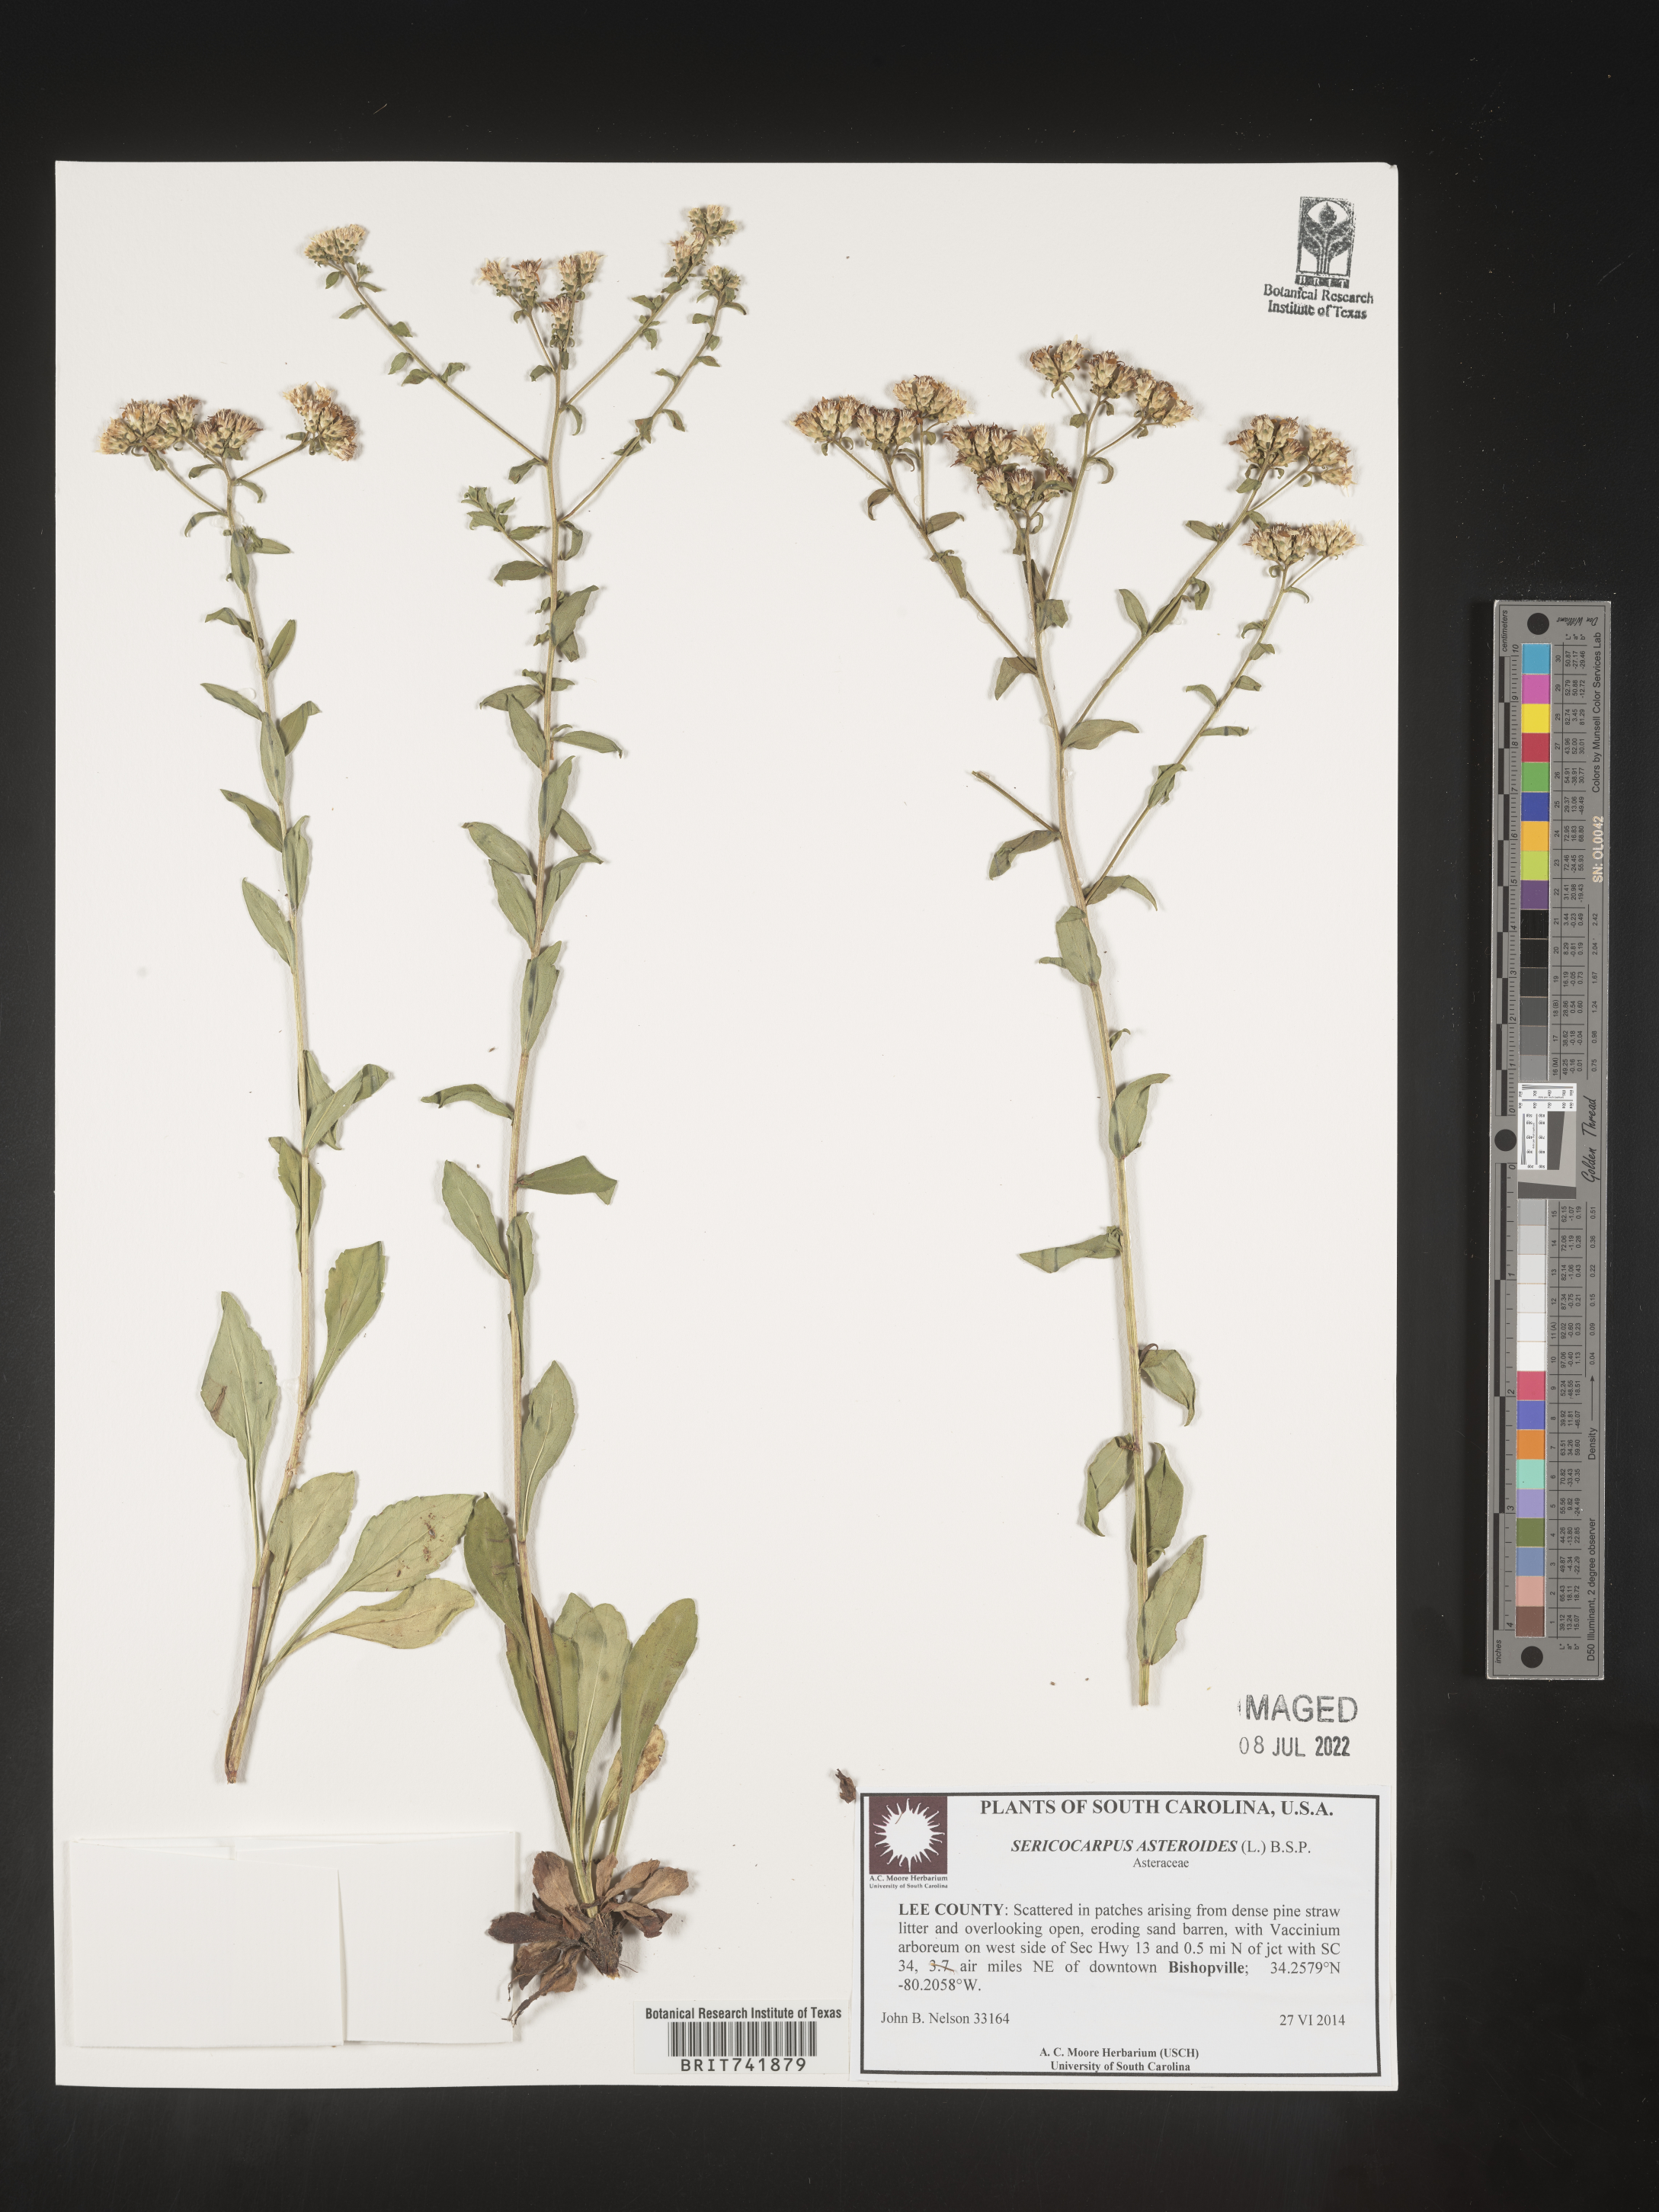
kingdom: Plantae
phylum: Tracheophyta
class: Magnoliopsida
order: Asterales
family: Asteraceae
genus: Sericocarpus
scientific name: Sericocarpus asteroides
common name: Toothed white-top aster
